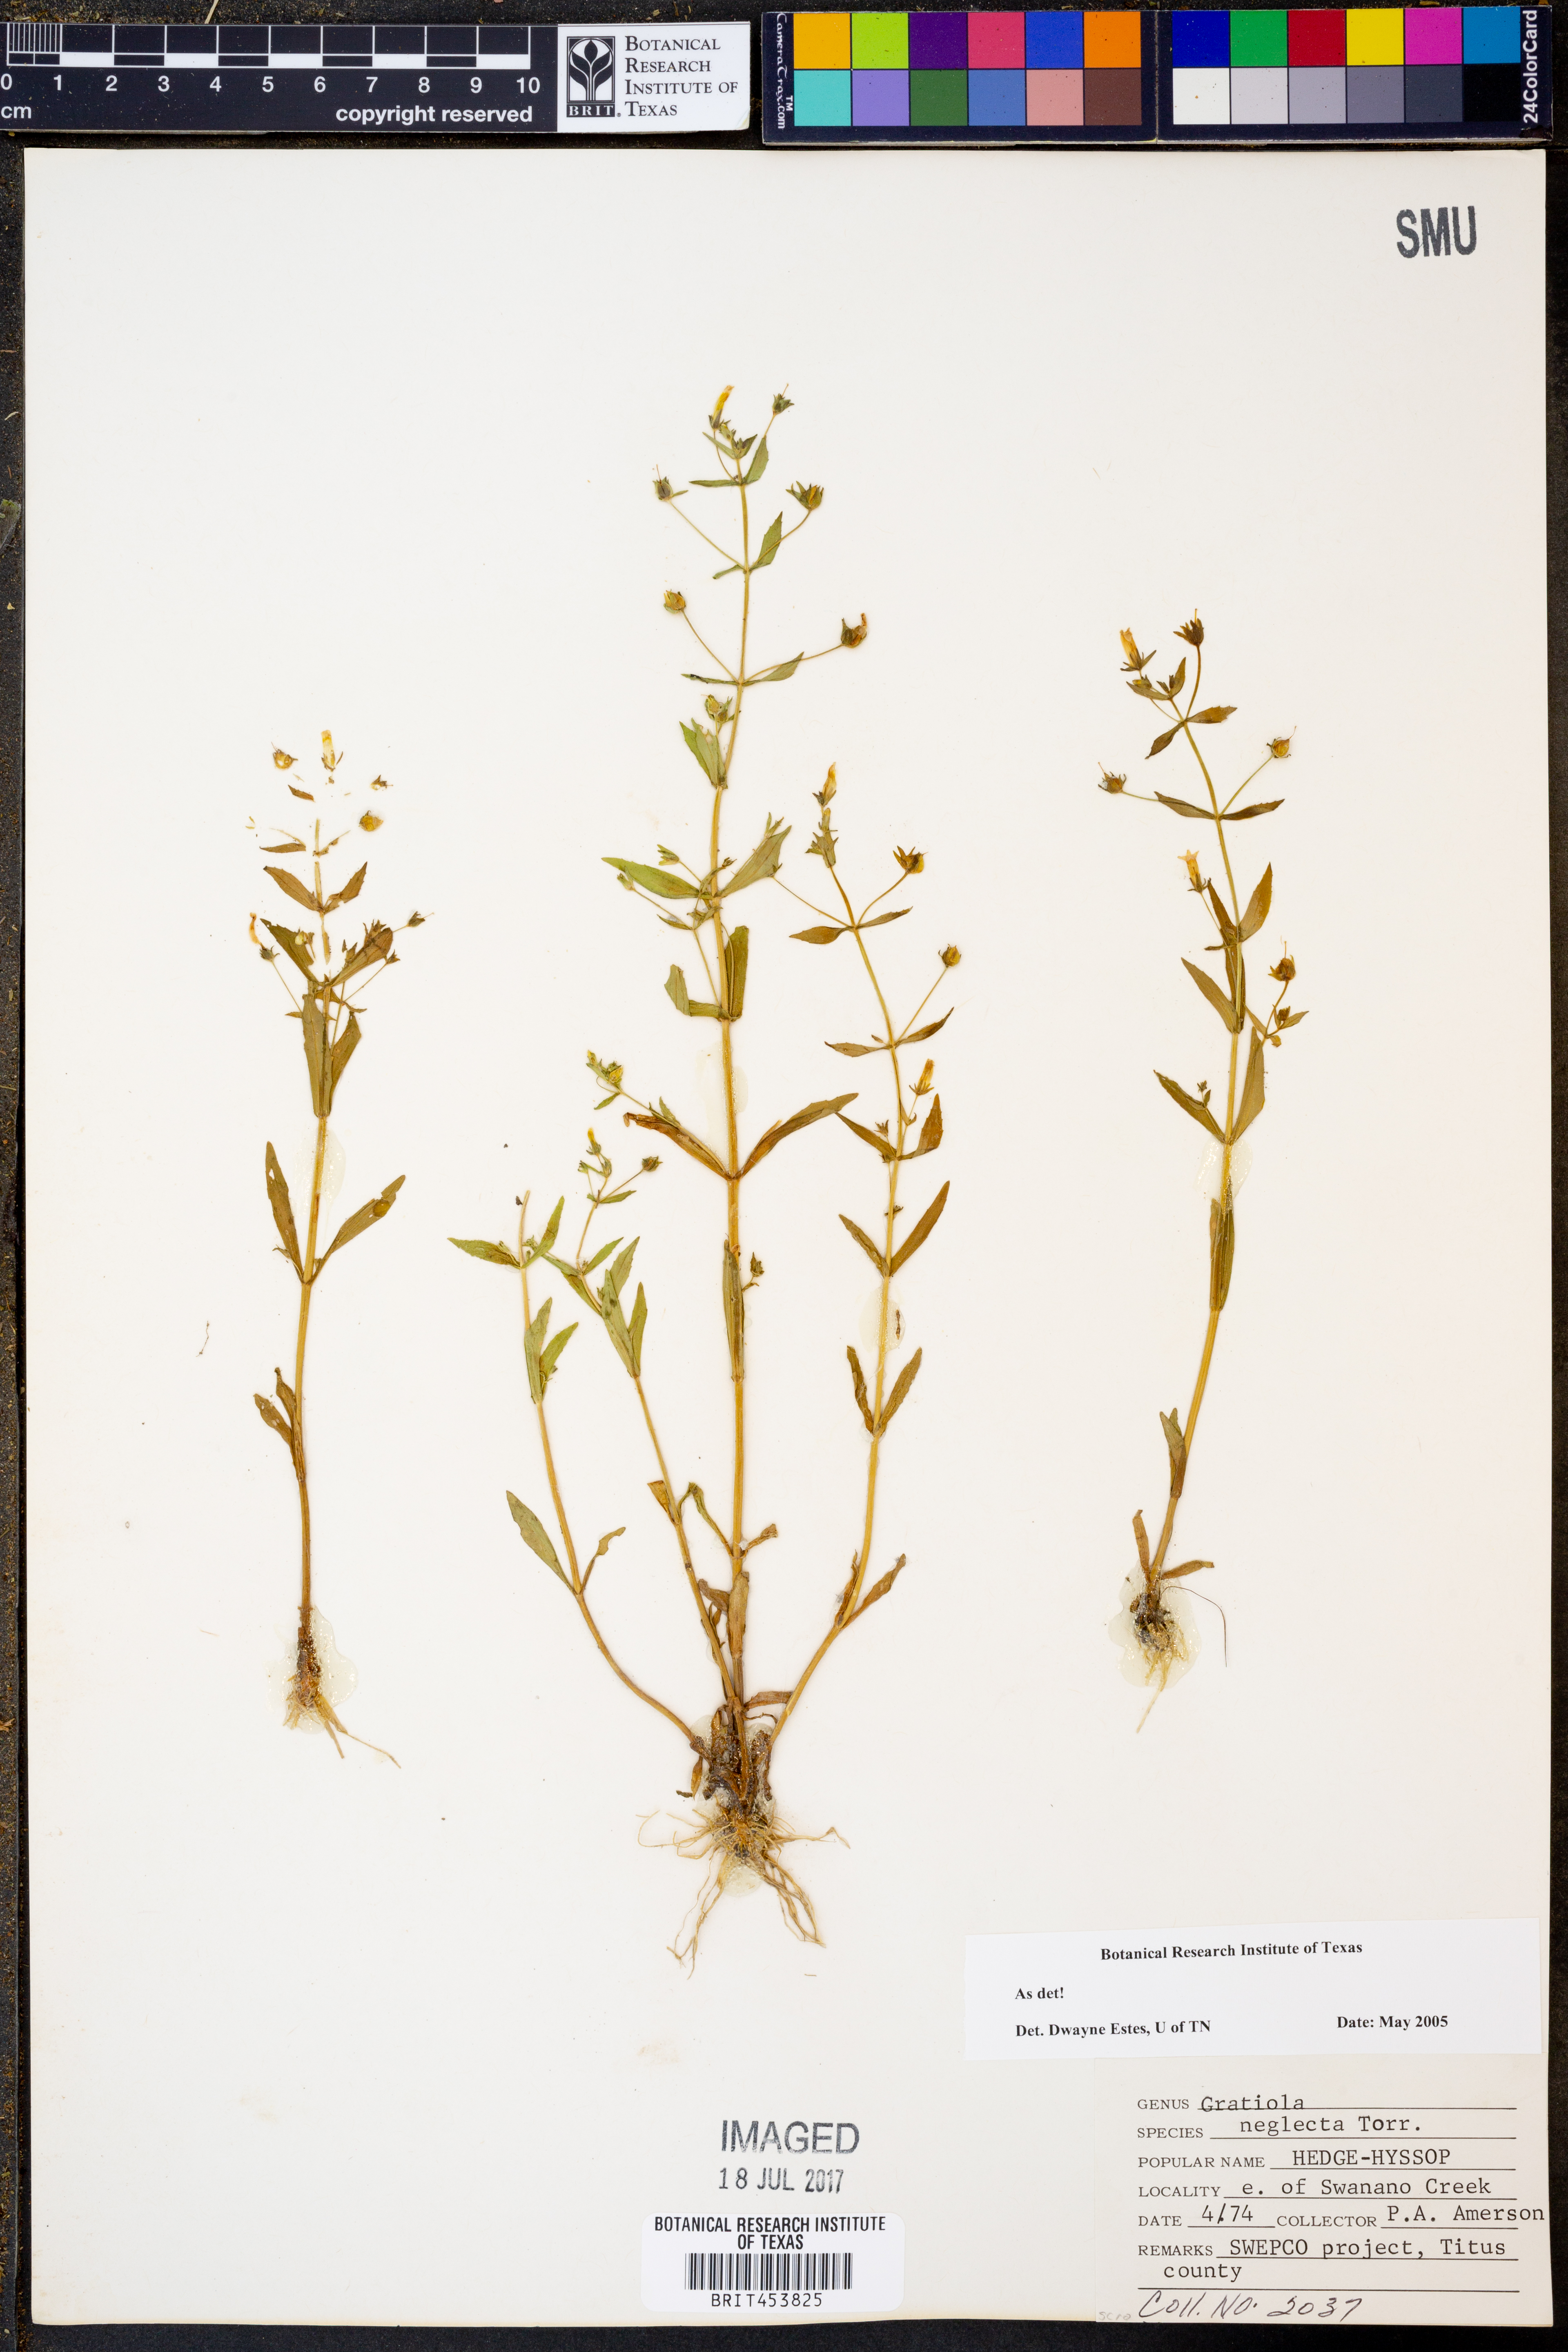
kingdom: Plantae
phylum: Tracheophyta
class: Magnoliopsida
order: Lamiales
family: Plantaginaceae
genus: Gratiola
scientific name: Gratiola neglecta
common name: American hedge-hyssop
